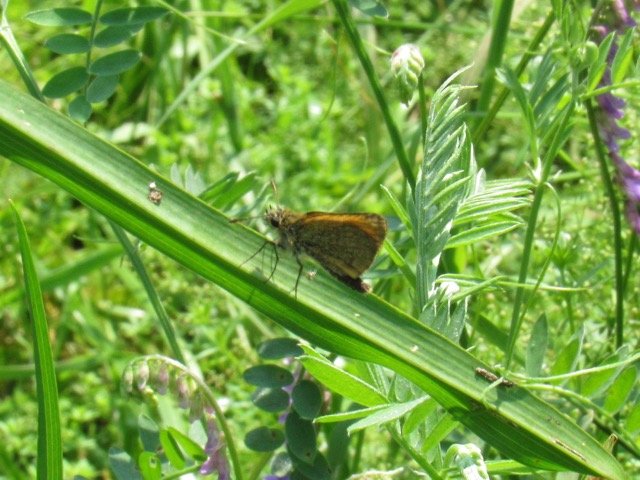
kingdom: Animalia
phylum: Arthropoda
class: Insecta
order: Lepidoptera
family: Hesperiidae
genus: Thymelicus
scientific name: Thymelicus lineola
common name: European Skipper
